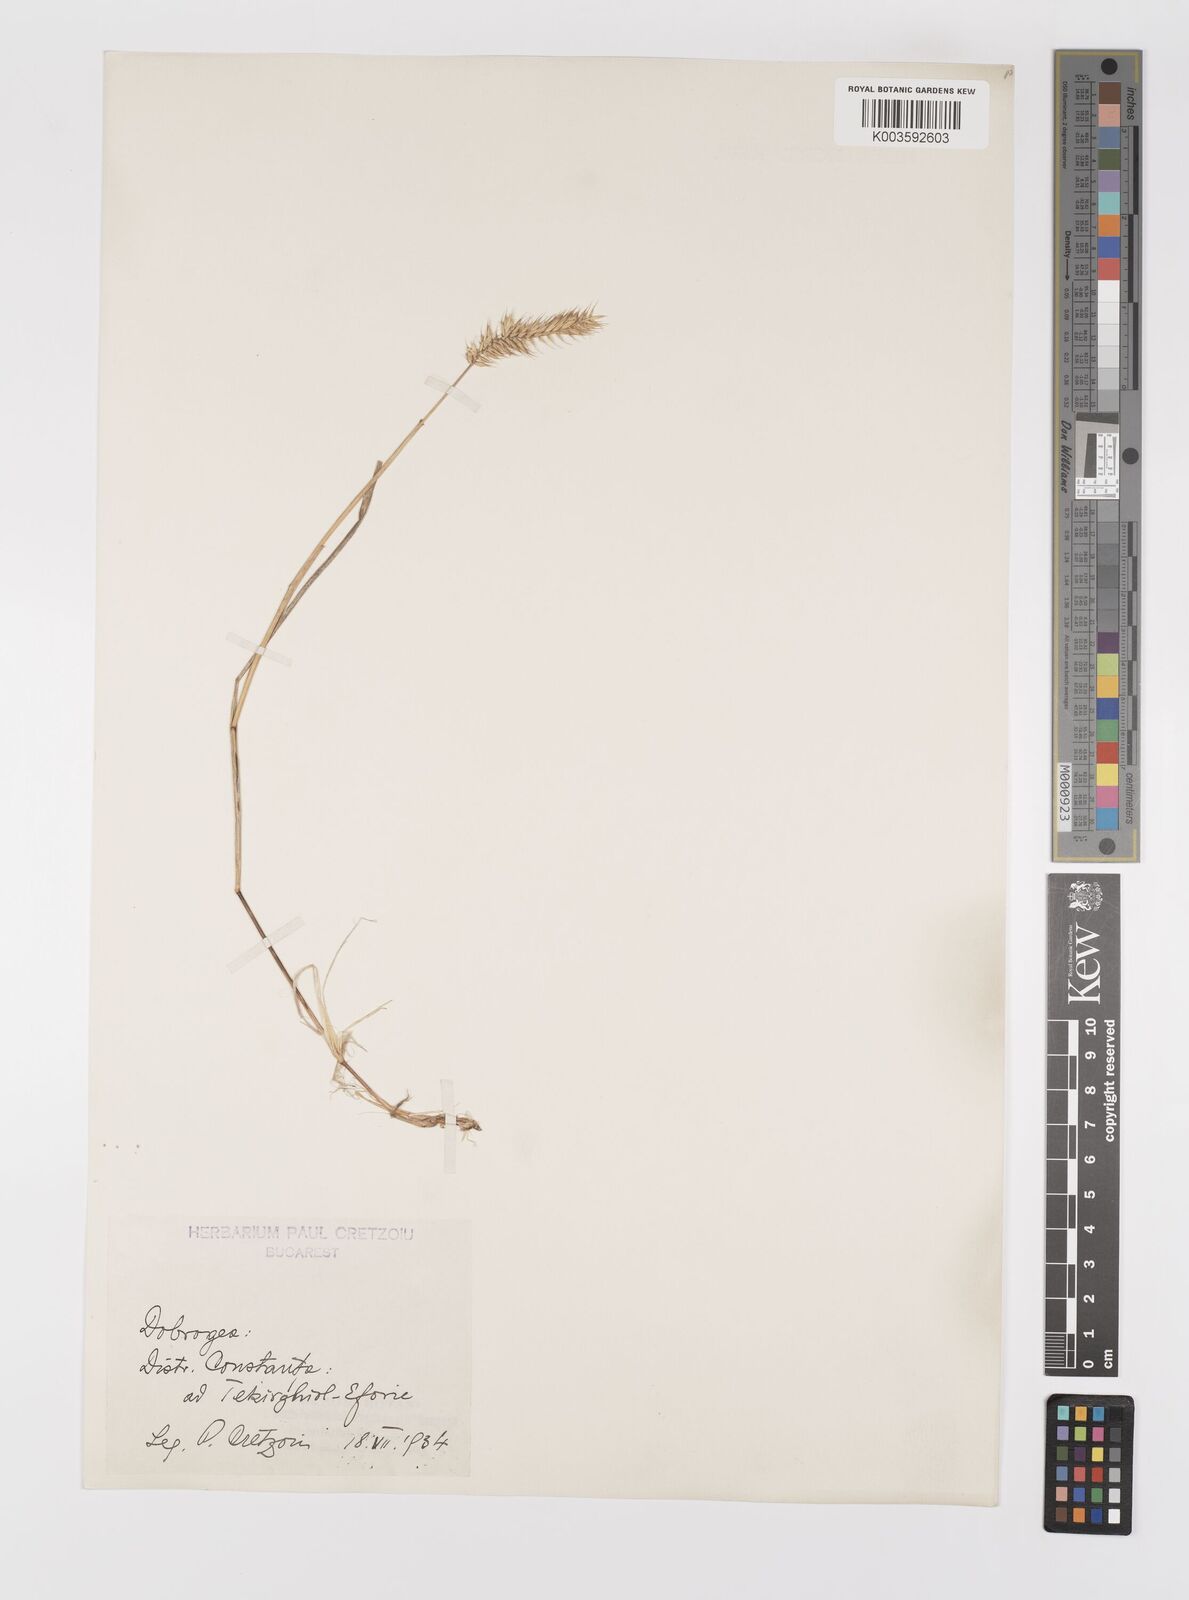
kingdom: Plantae
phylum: Tracheophyta
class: Liliopsida
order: Poales
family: Poaceae
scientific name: Poaceae
